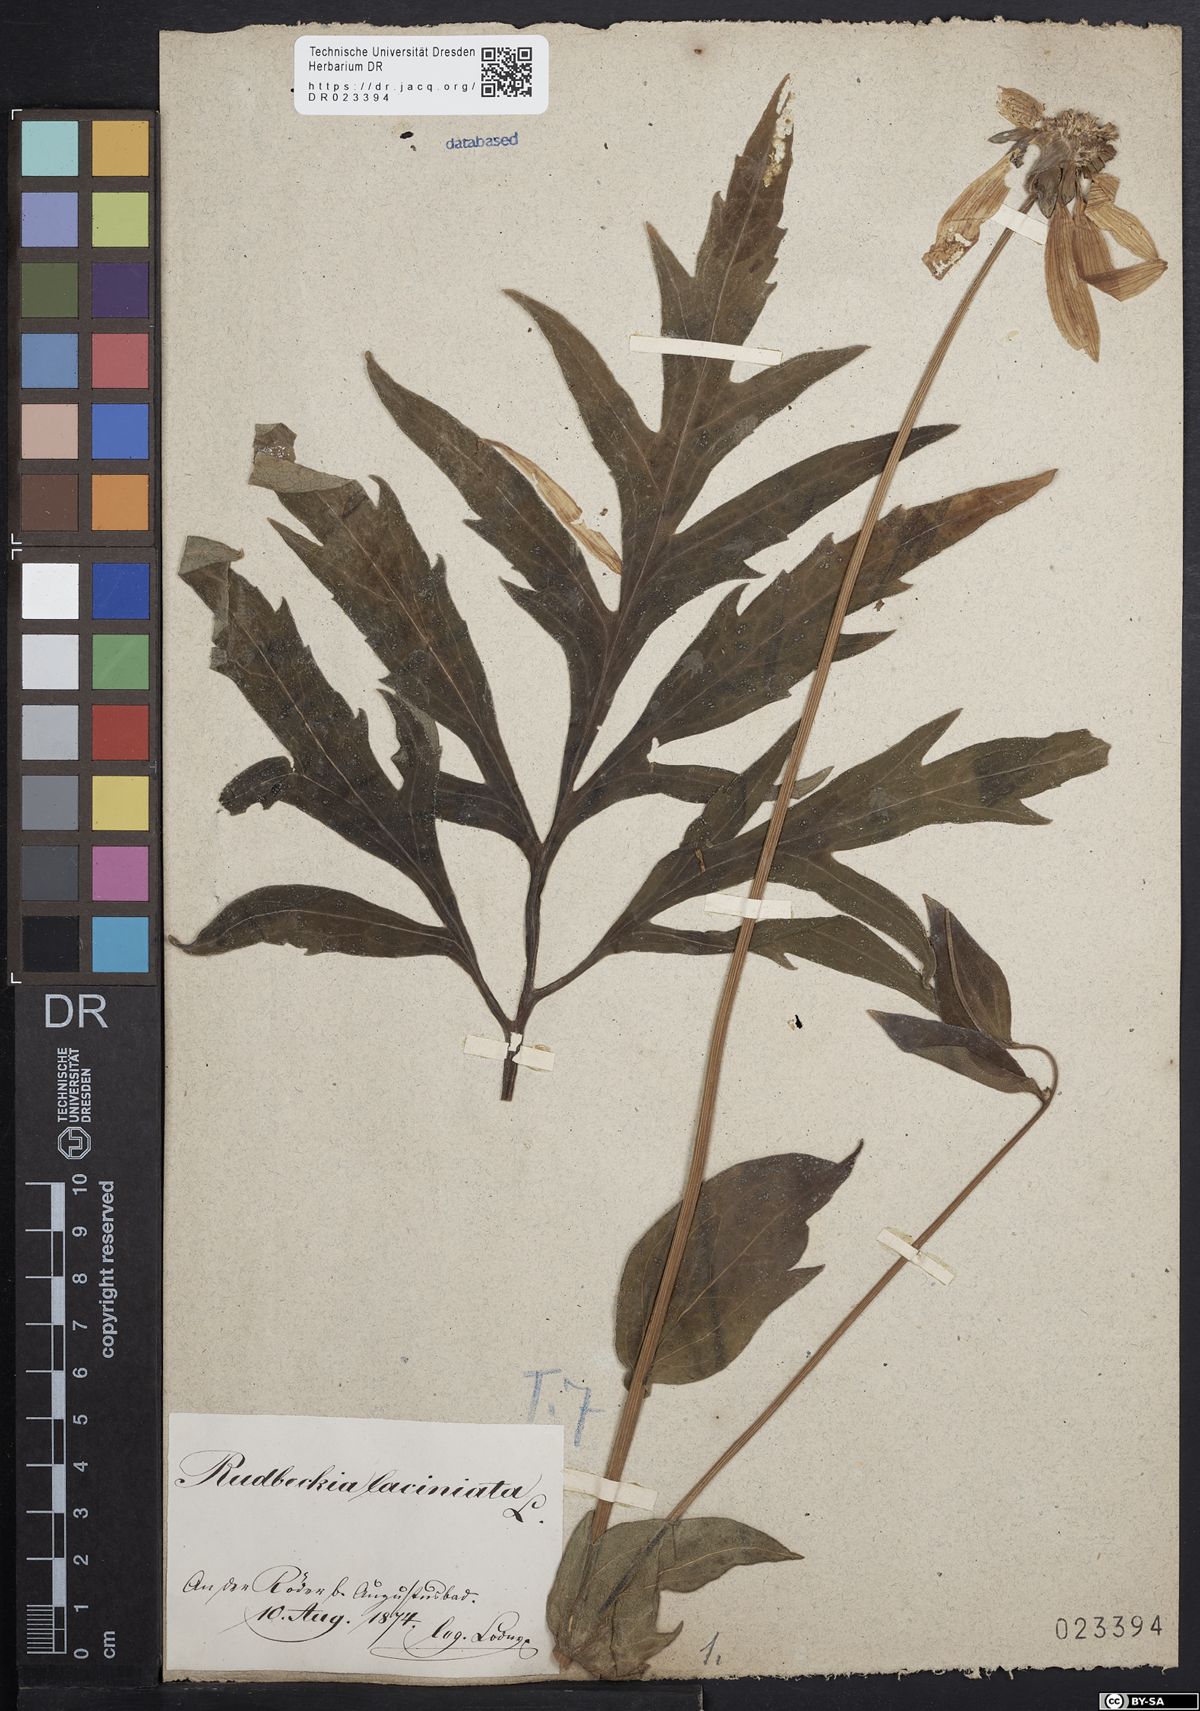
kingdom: Plantae
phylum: Tracheophyta
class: Magnoliopsida
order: Asterales
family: Asteraceae
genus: Rudbeckia
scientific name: Rudbeckia laciniata
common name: Coneflower
